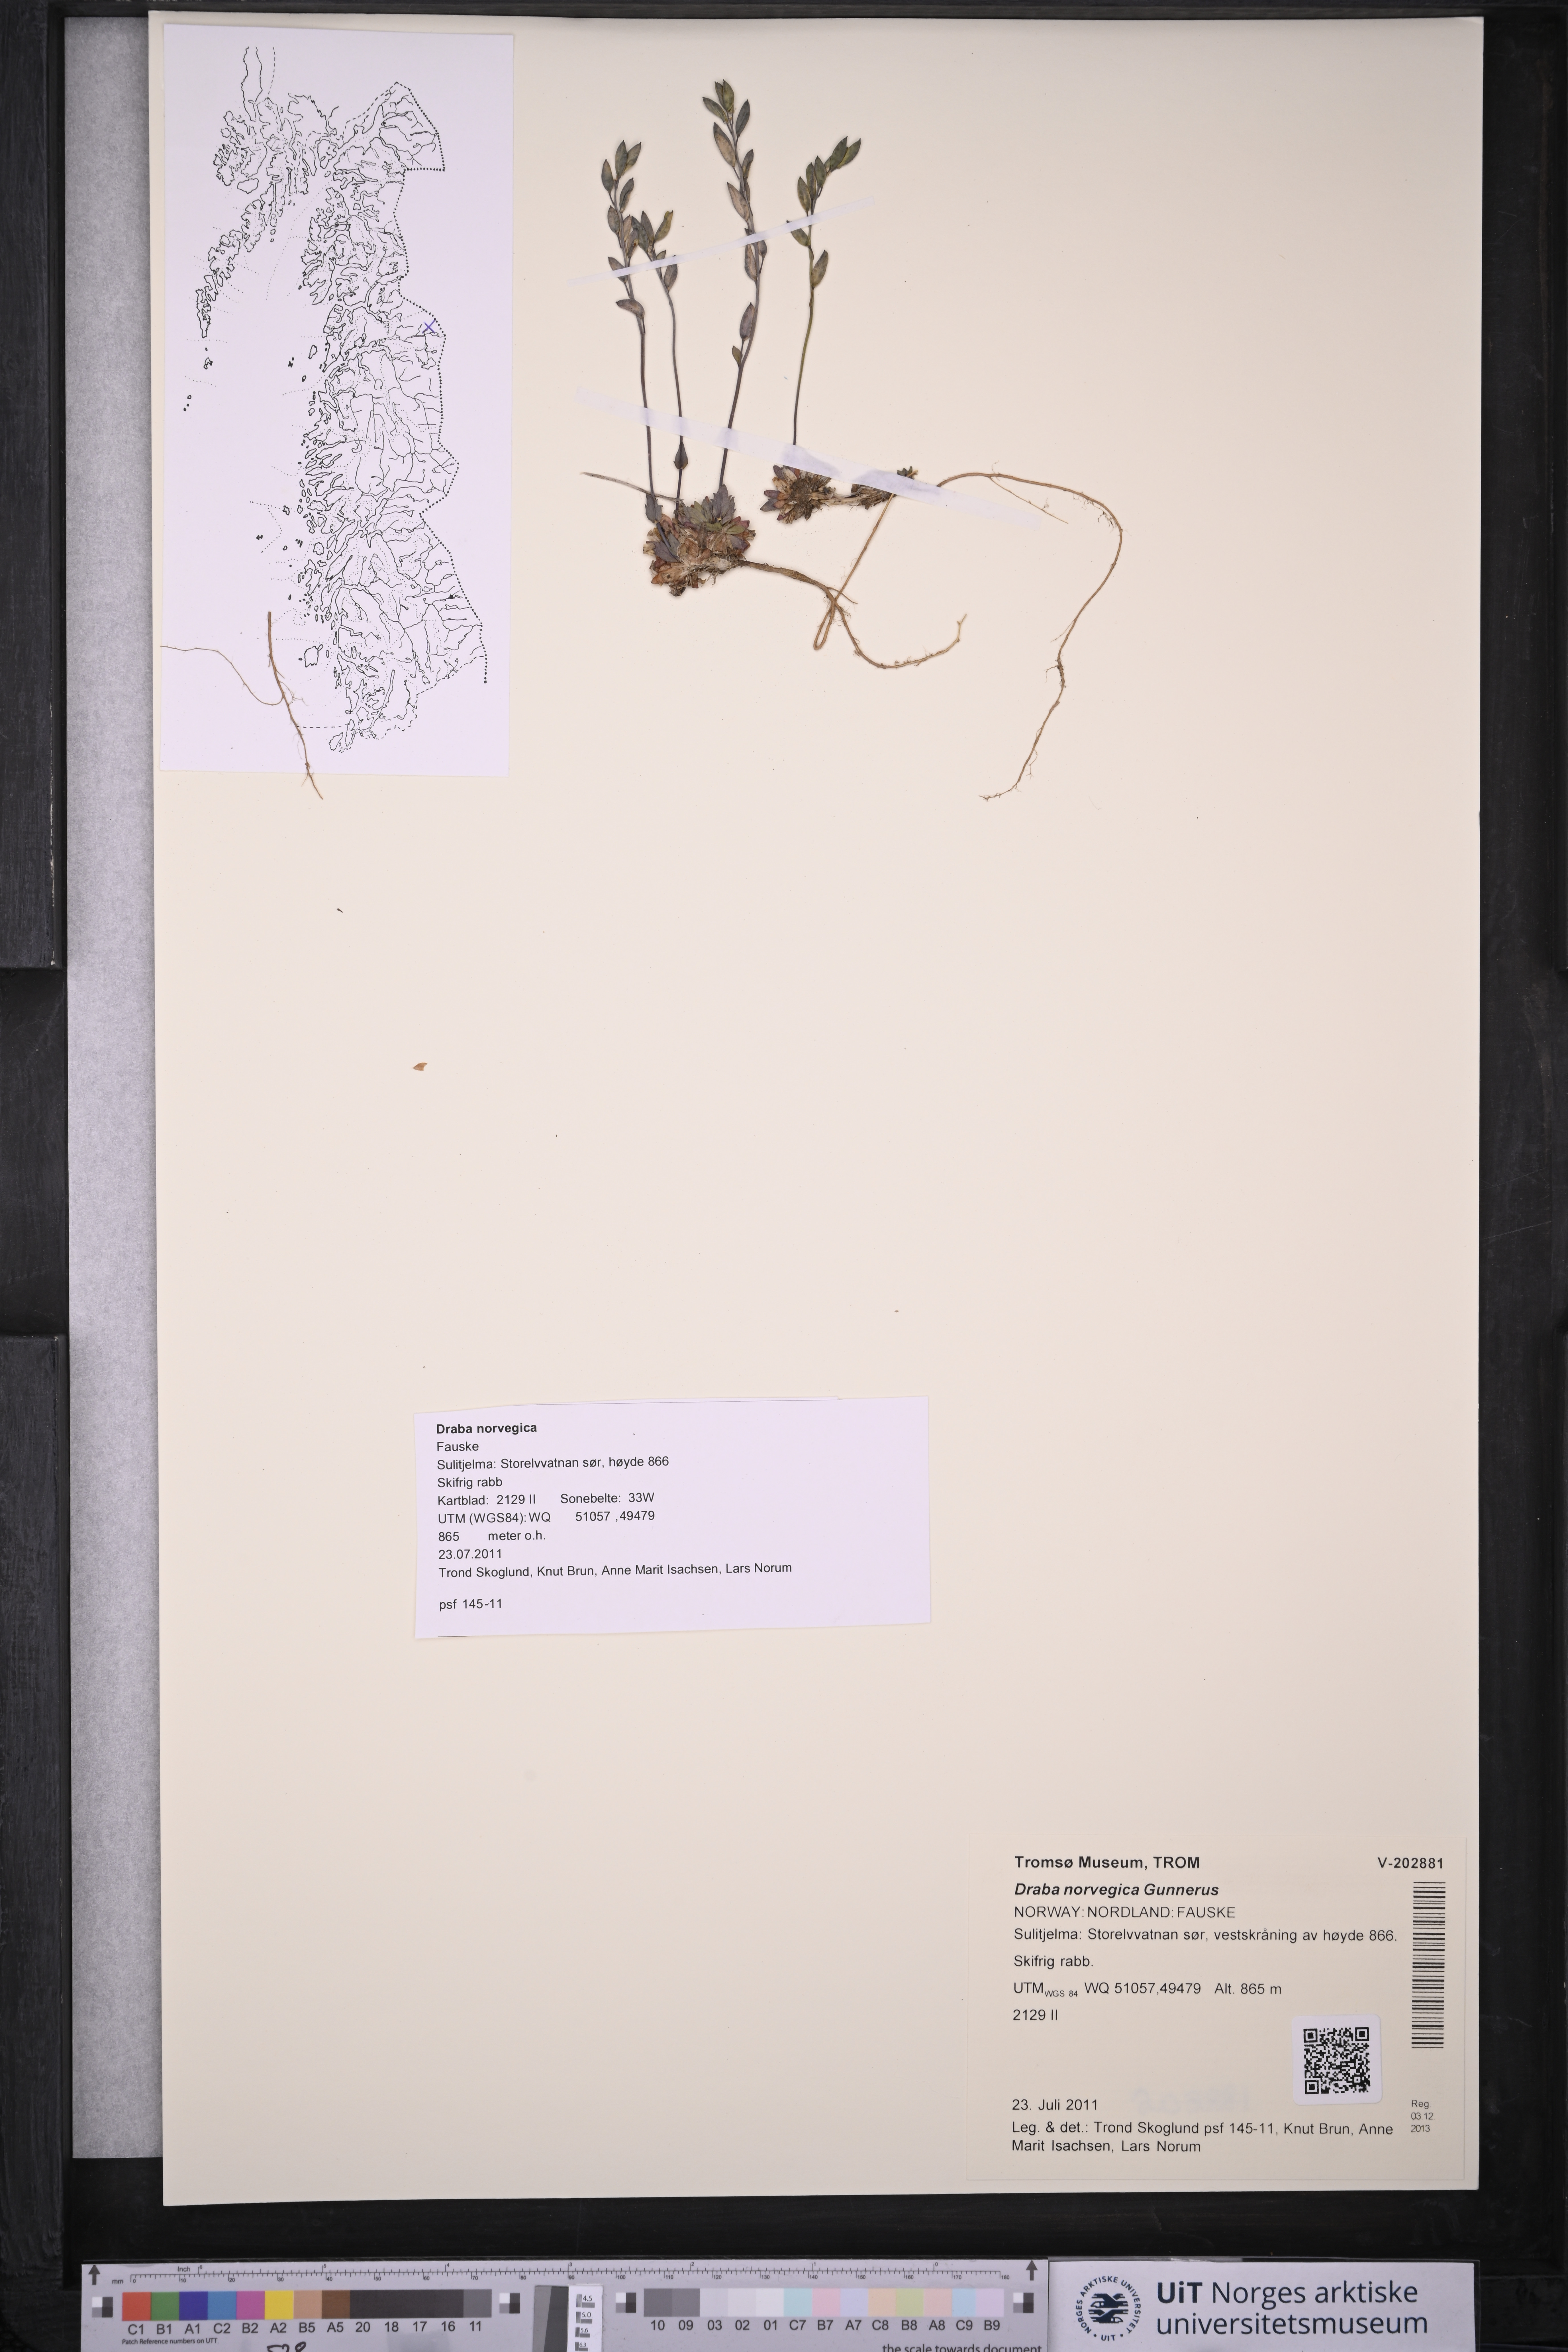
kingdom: Plantae
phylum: Tracheophyta
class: Magnoliopsida
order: Brassicales
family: Brassicaceae
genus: Draba
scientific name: Draba norvegica
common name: Rock whitlowgrass
